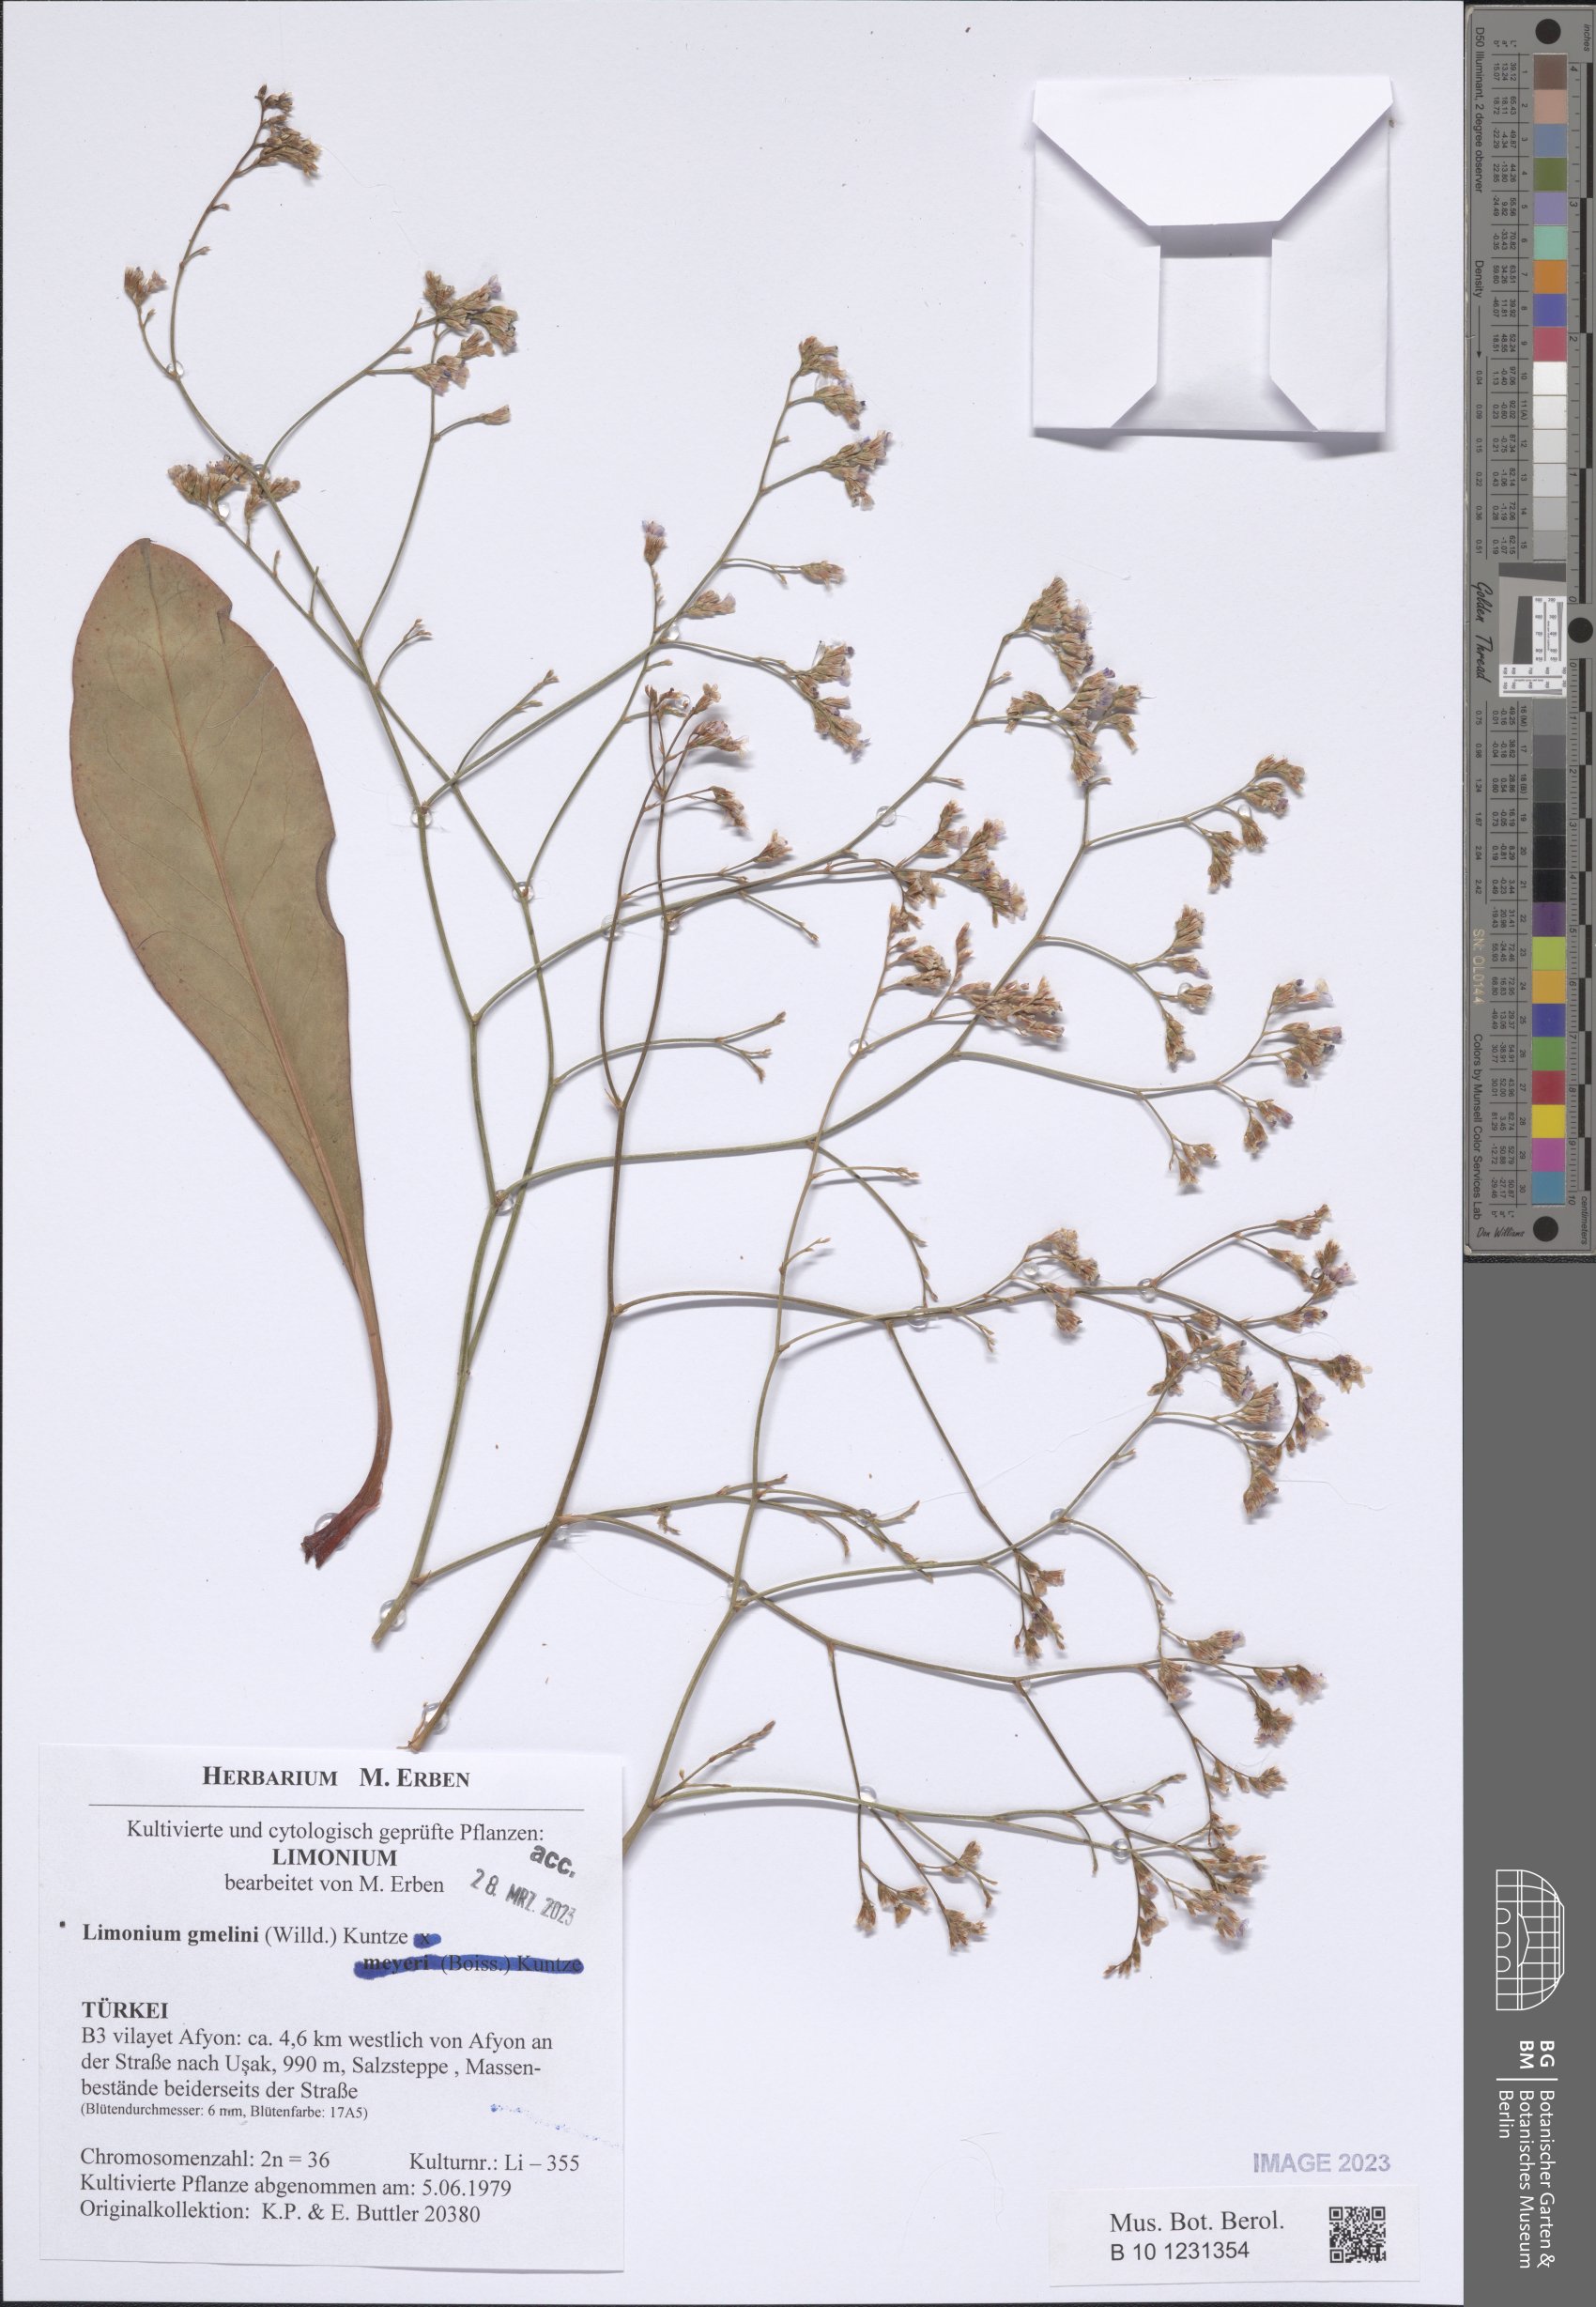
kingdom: Plantae
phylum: Tracheophyta
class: Magnoliopsida
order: Caryophyllales
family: Plumbaginaceae
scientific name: Plumbaginaceae
